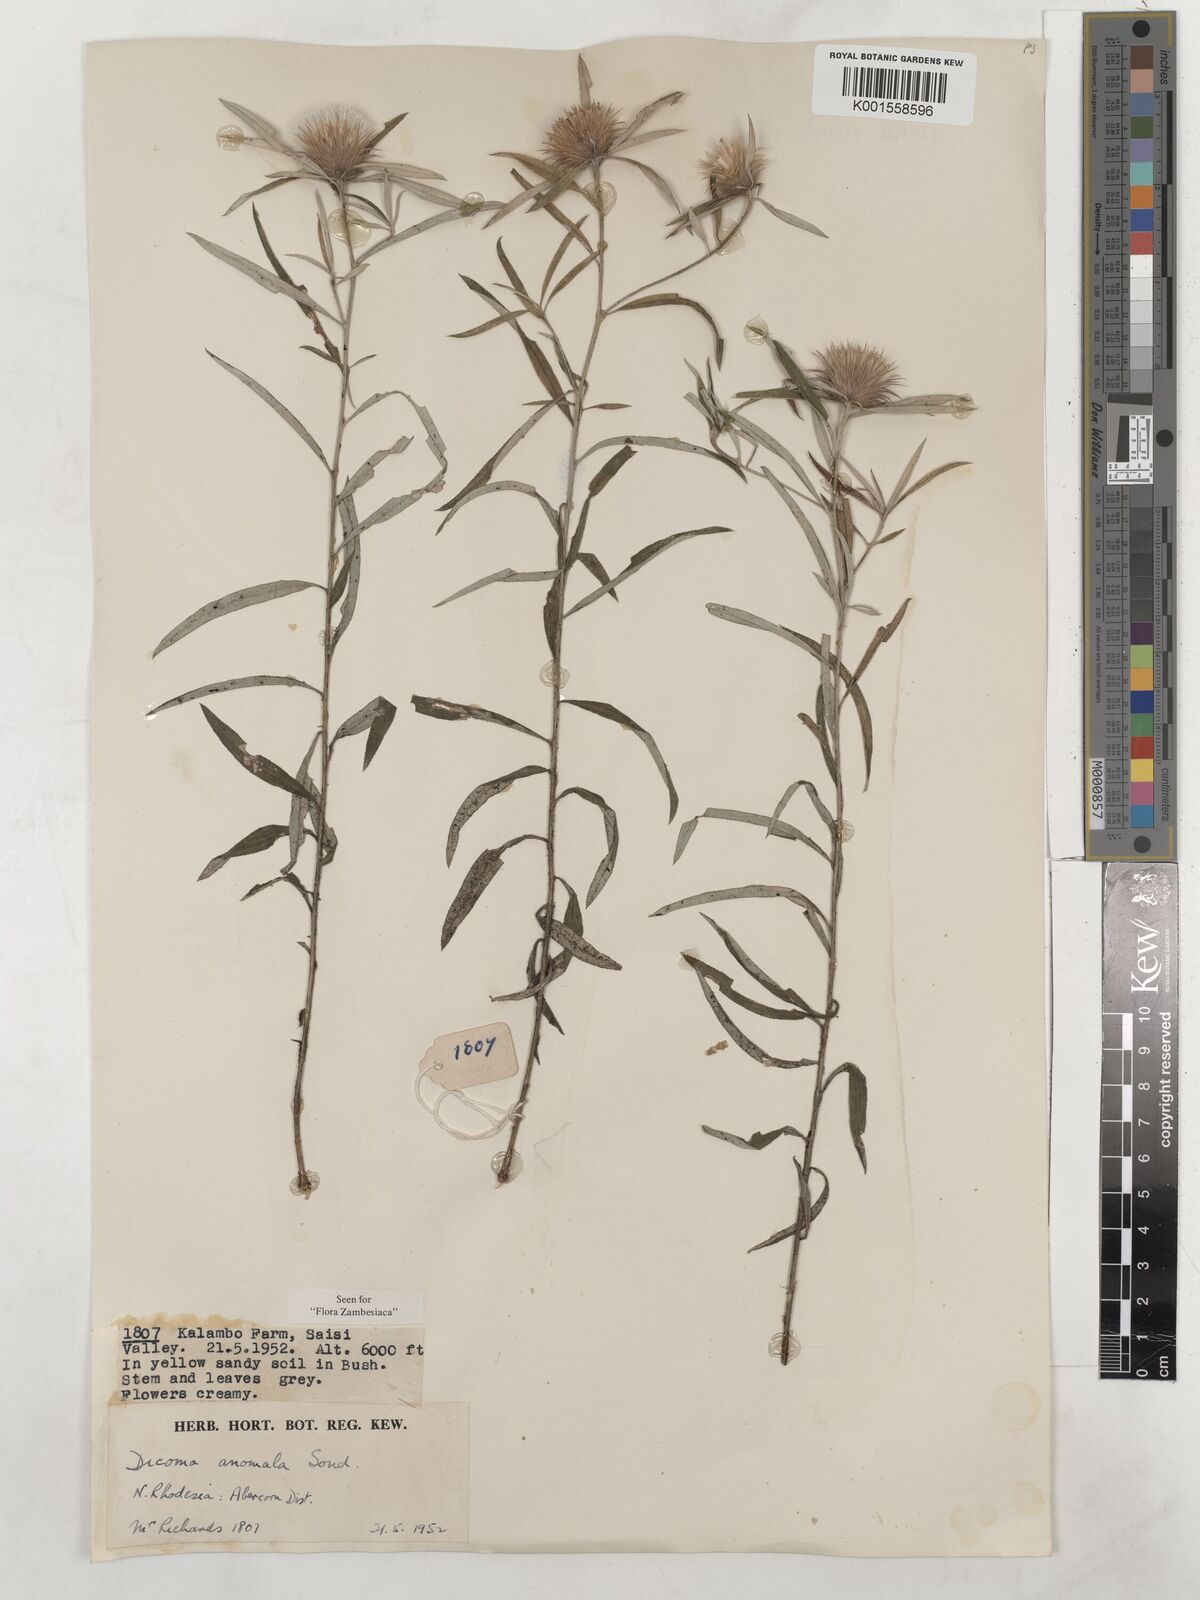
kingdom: Plantae
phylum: Tracheophyta
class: Magnoliopsida
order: Asterales
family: Asteraceae
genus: Dicoma
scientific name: Dicoma anomala
